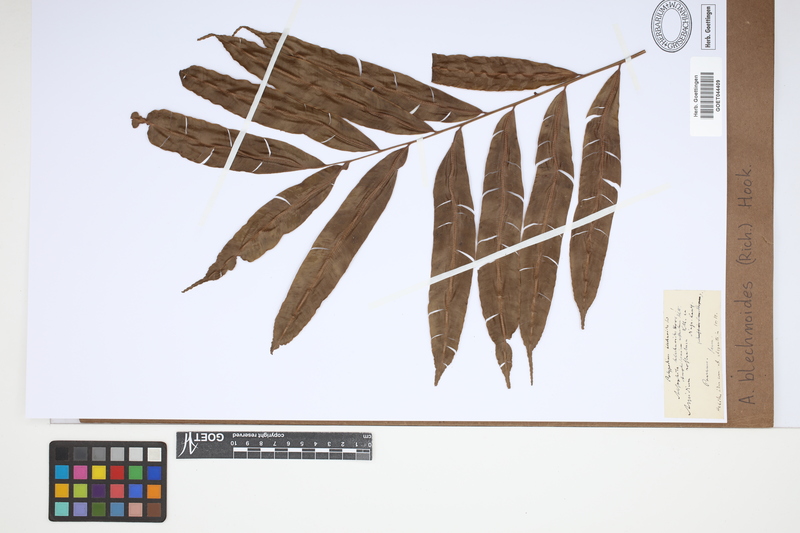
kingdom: Plantae
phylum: Tracheophyta
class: Polypodiopsida
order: Cyatheales
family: Metaxyaceae
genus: Metaxya
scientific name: Metaxya rostrata
